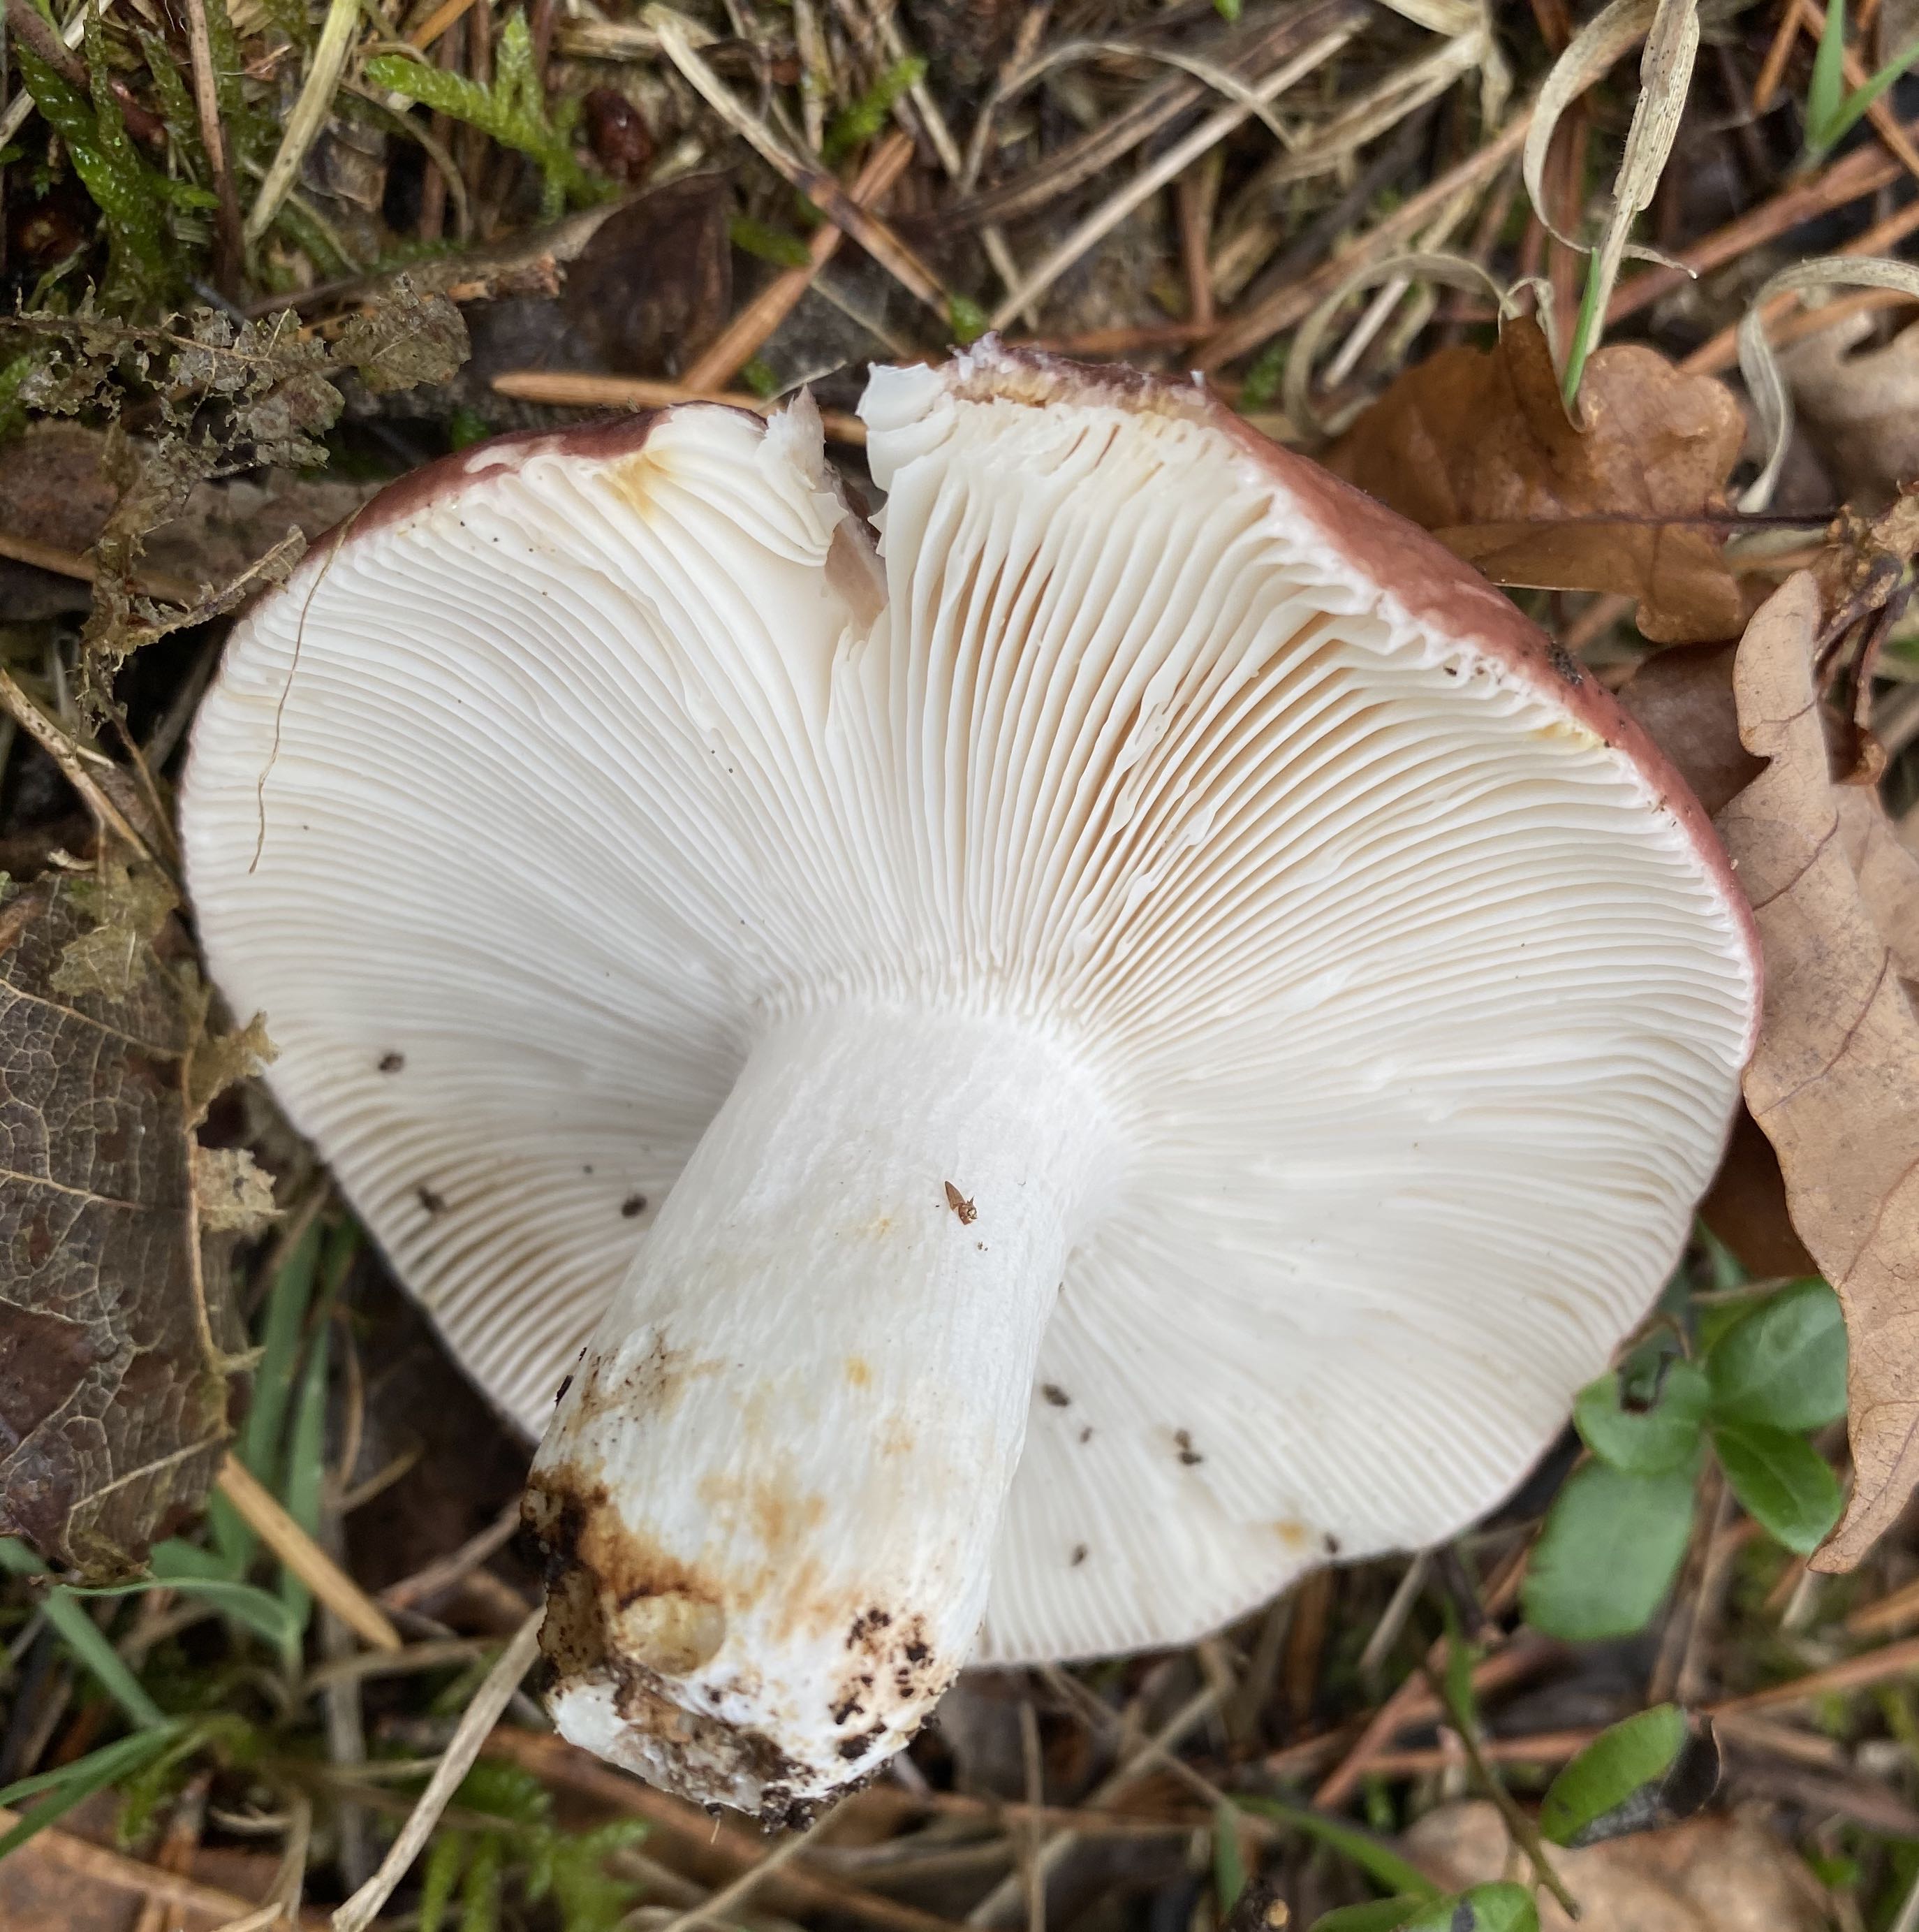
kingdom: Fungi
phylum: Basidiomycota
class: Agaricomycetes
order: Russulales
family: Russulaceae
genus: Russula
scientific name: Russula vesca
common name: spiselig skørhat
